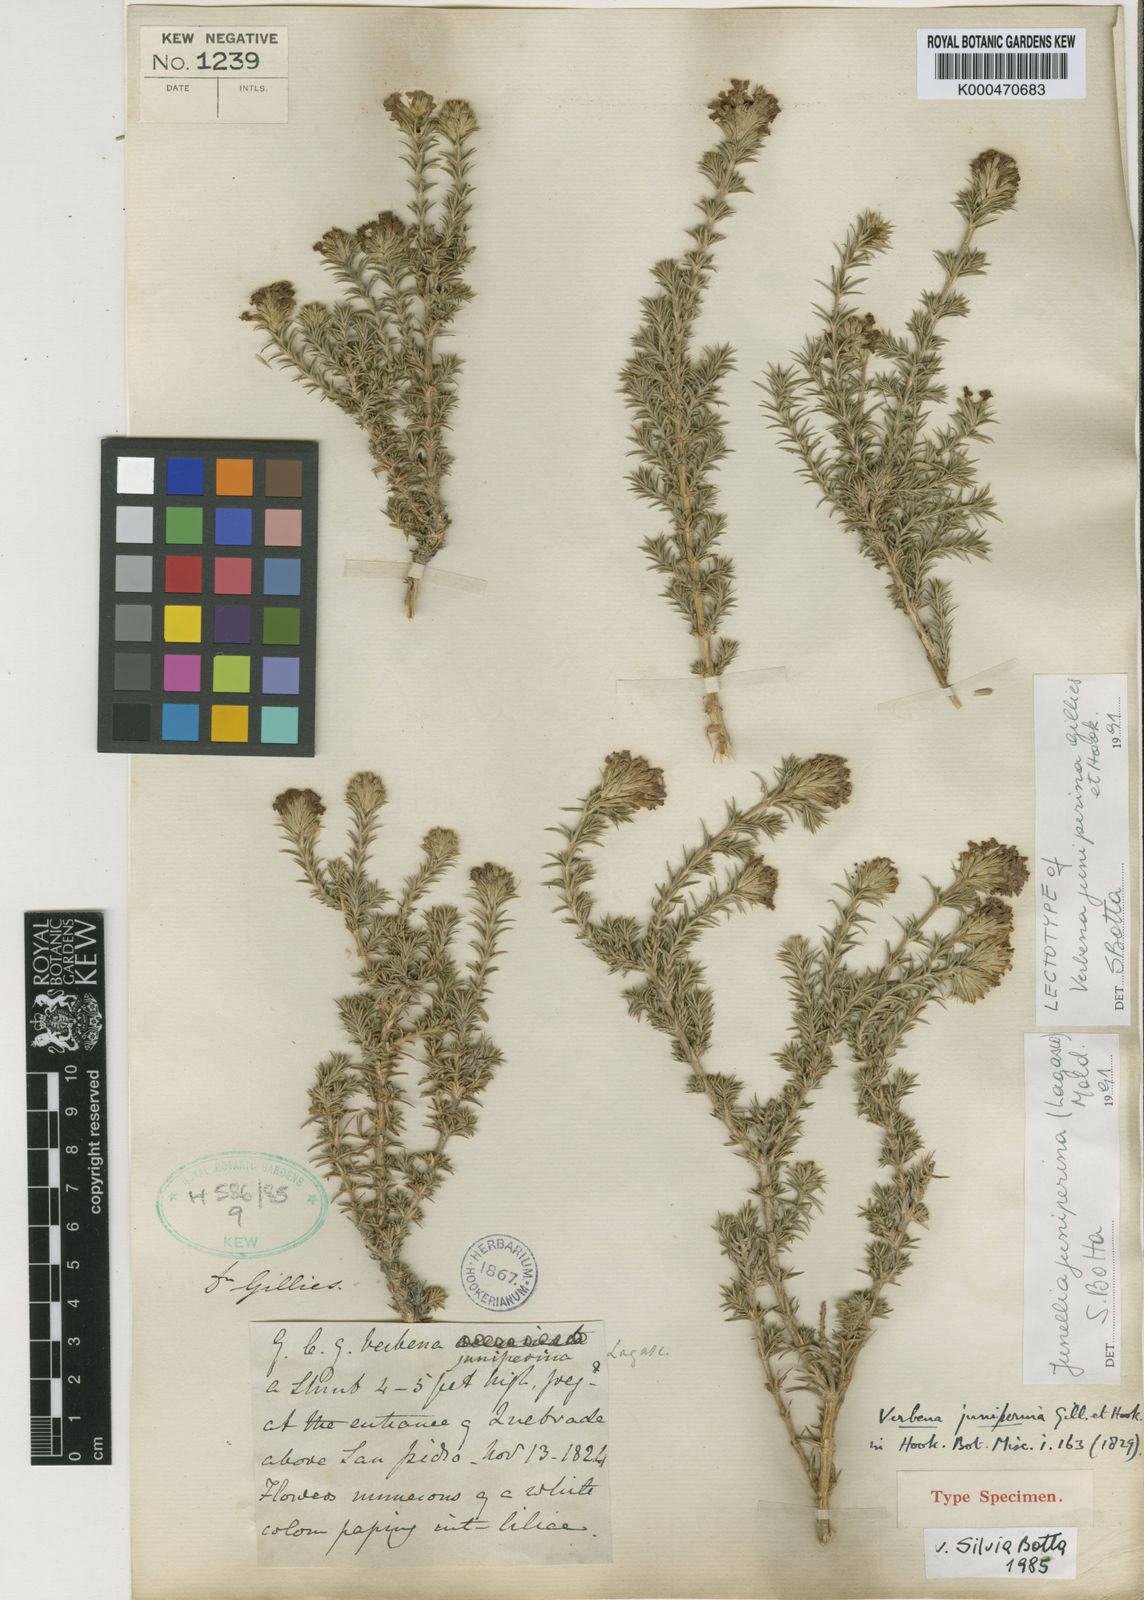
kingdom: Plantae
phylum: Tracheophyta
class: Magnoliopsida
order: Lamiales
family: Verbenaceae
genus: Junellia
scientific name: Junellia juniperina
